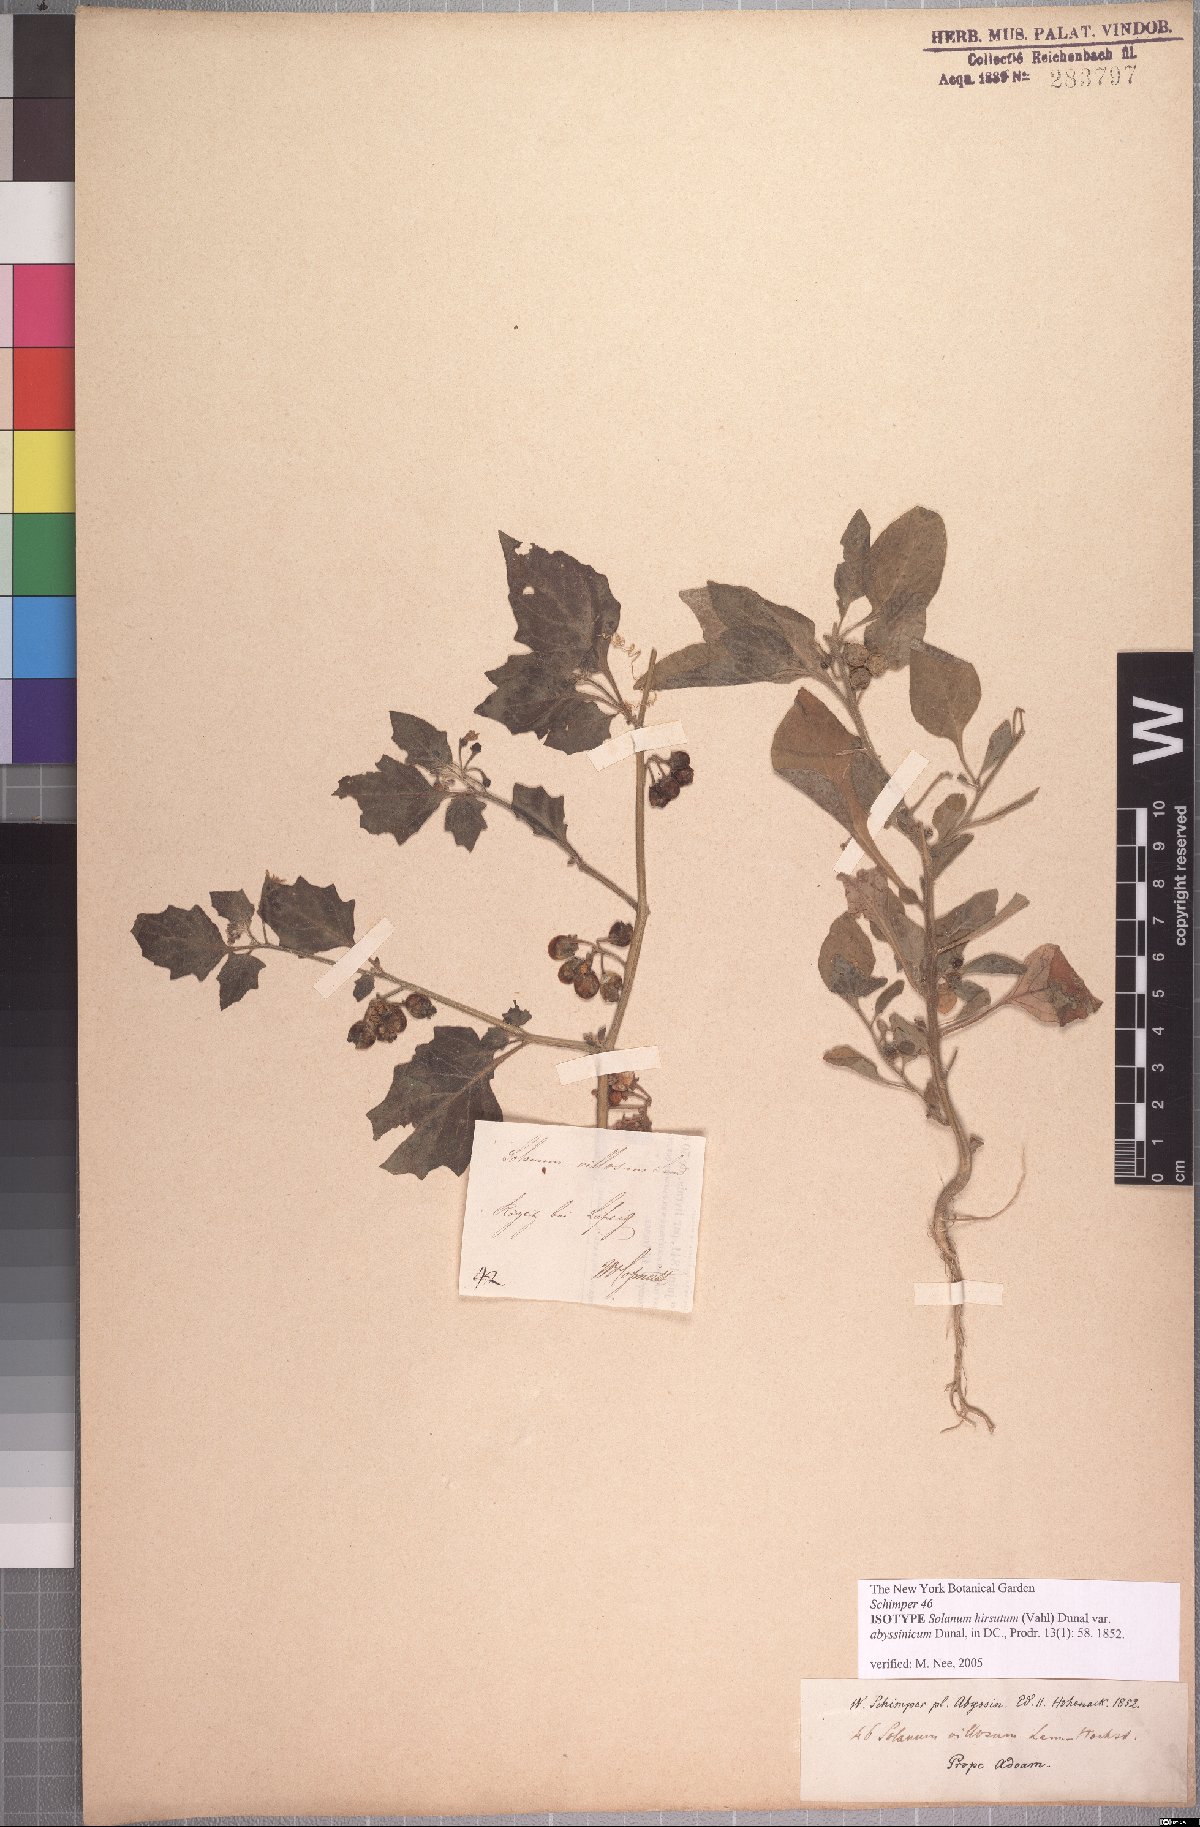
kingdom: Plantae
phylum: Tracheophyta
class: Magnoliopsida
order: Solanales
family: Solanaceae
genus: Solanum
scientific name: Solanum memphiticum
